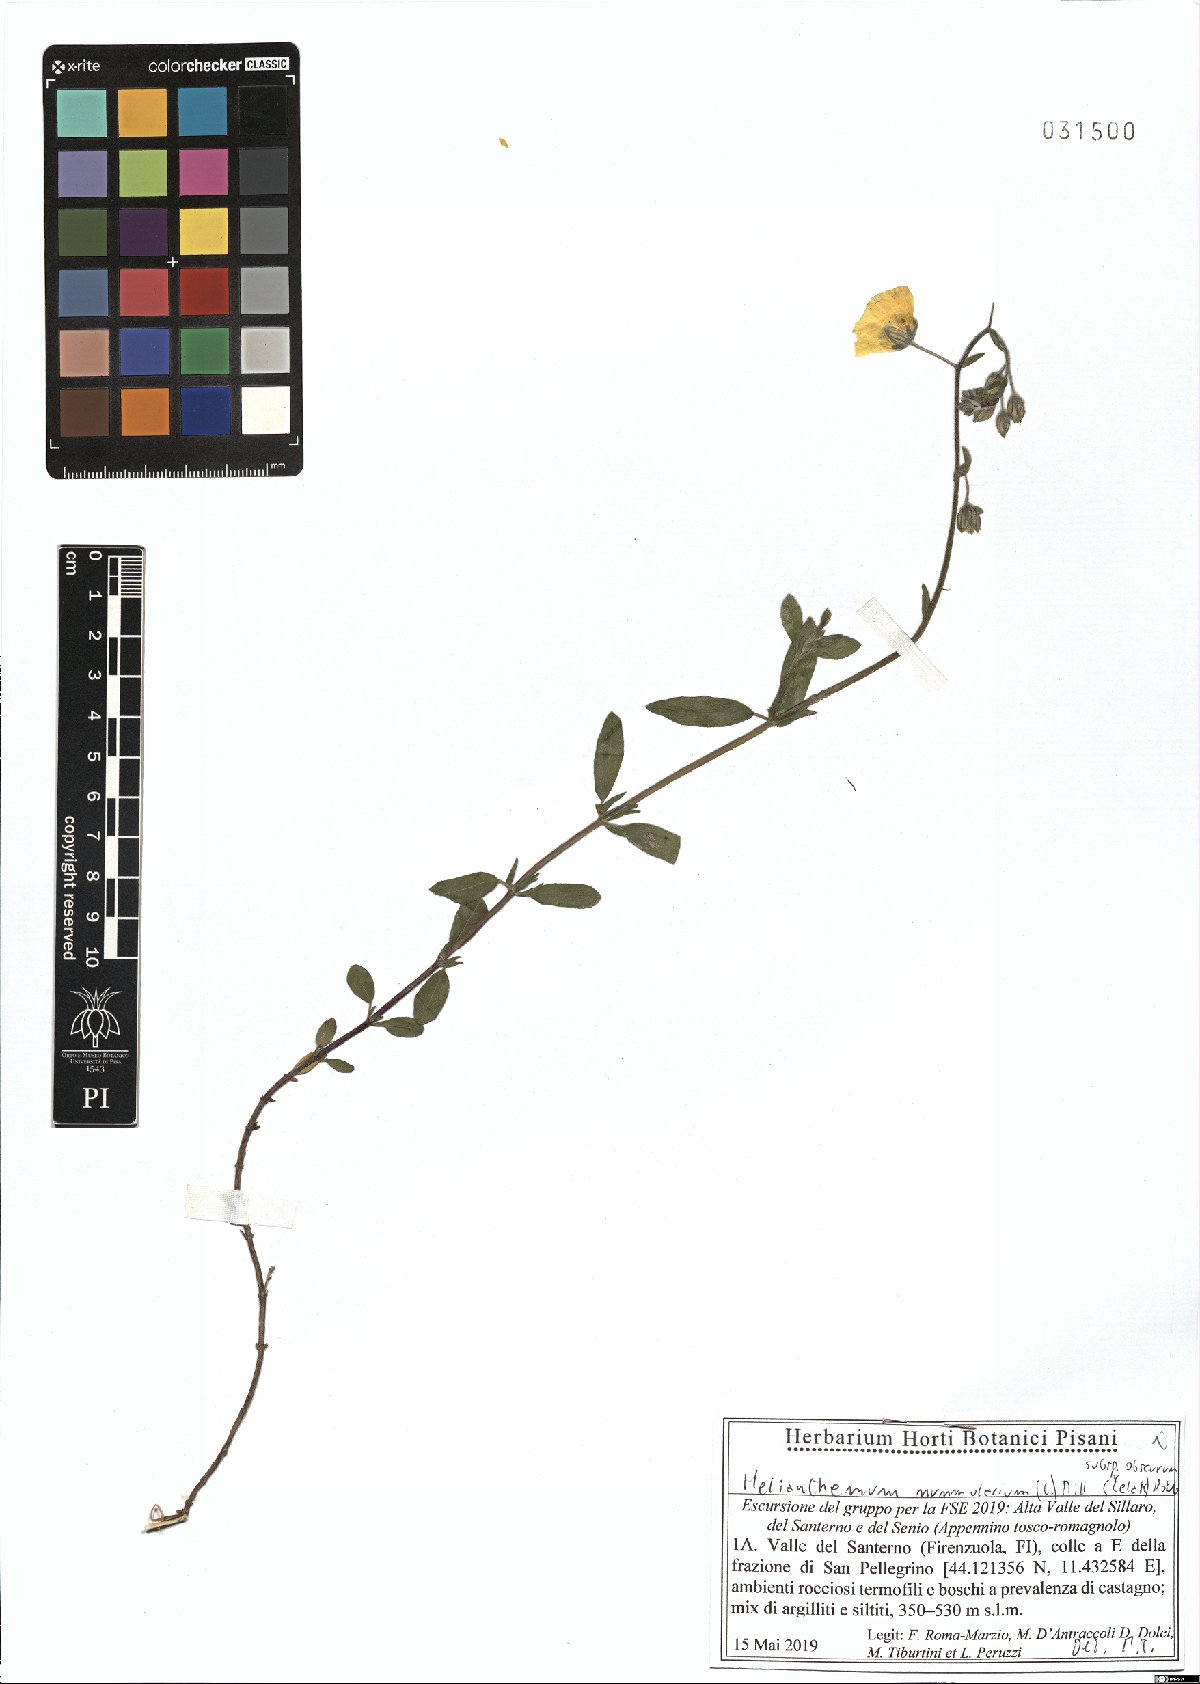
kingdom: Plantae
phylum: Tracheophyta
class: Magnoliopsida
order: Malvales
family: Cistaceae
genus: Helianthemum
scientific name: Helianthemum nummularium
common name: Common rock-rose
